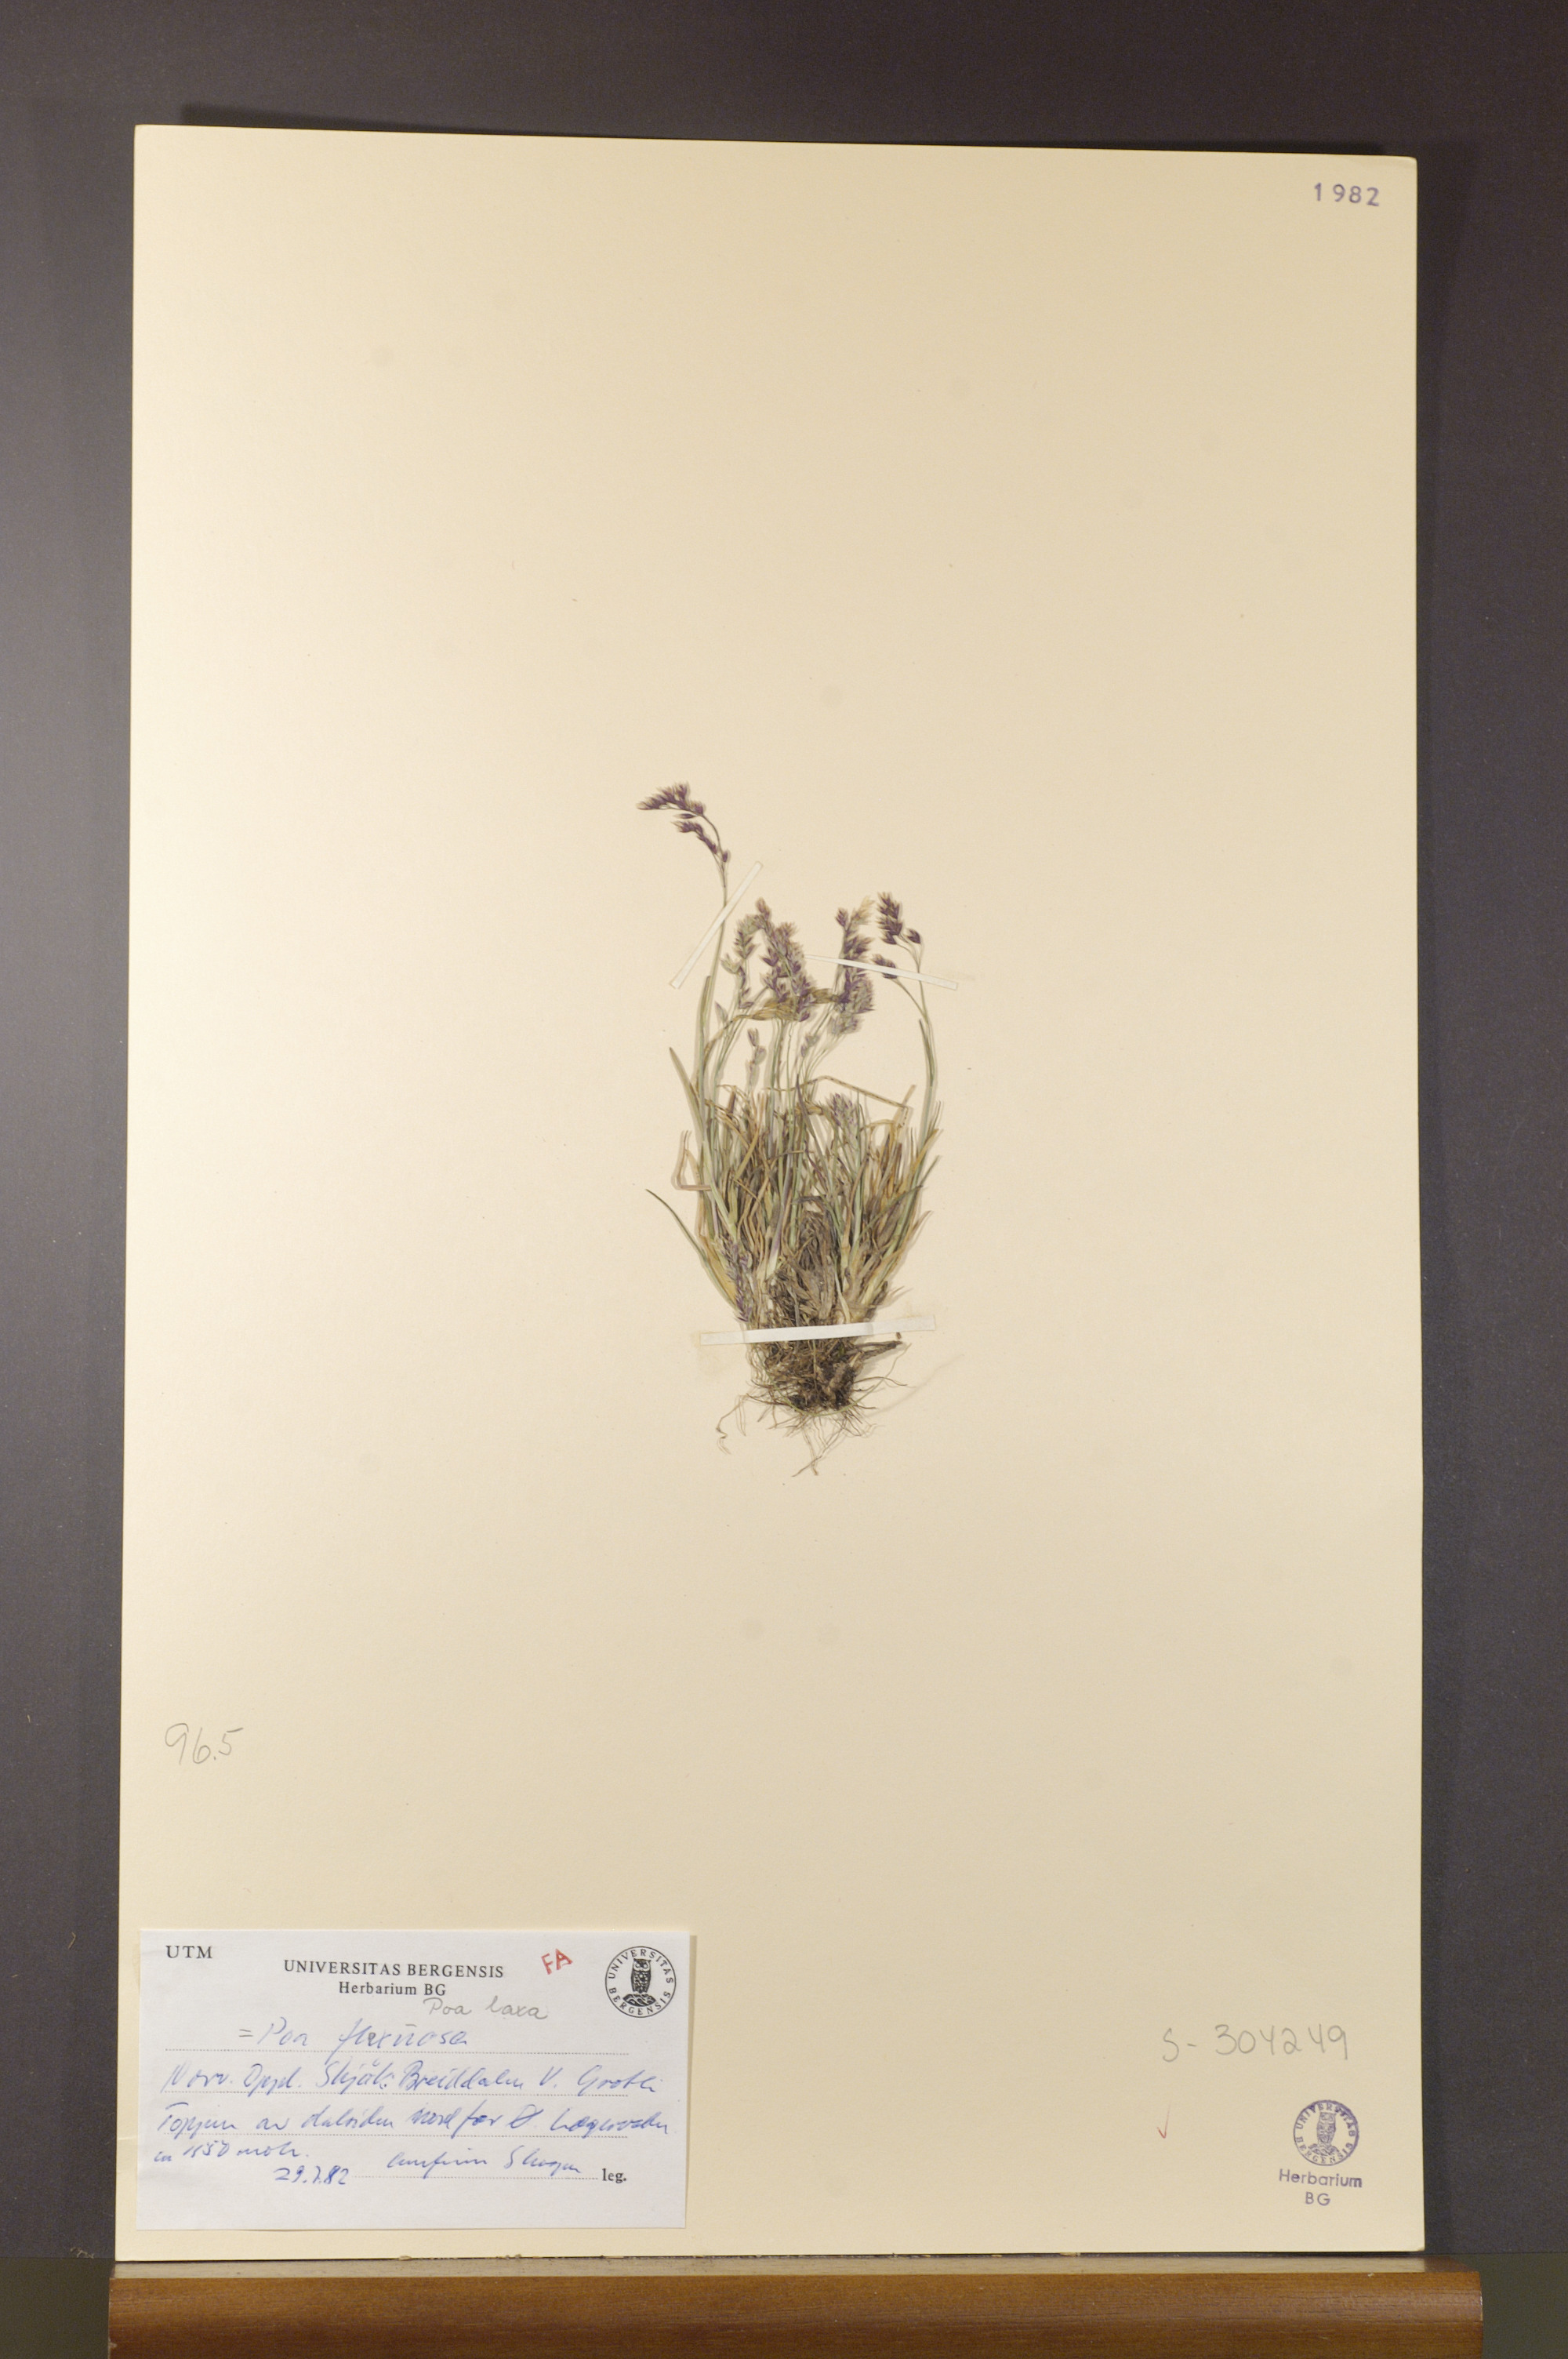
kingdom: Plantae
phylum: Tracheophyta
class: Liliopsida
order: Poales
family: Poaceae
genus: Poa
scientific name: Poa arctica
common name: Arctic bluegrass
